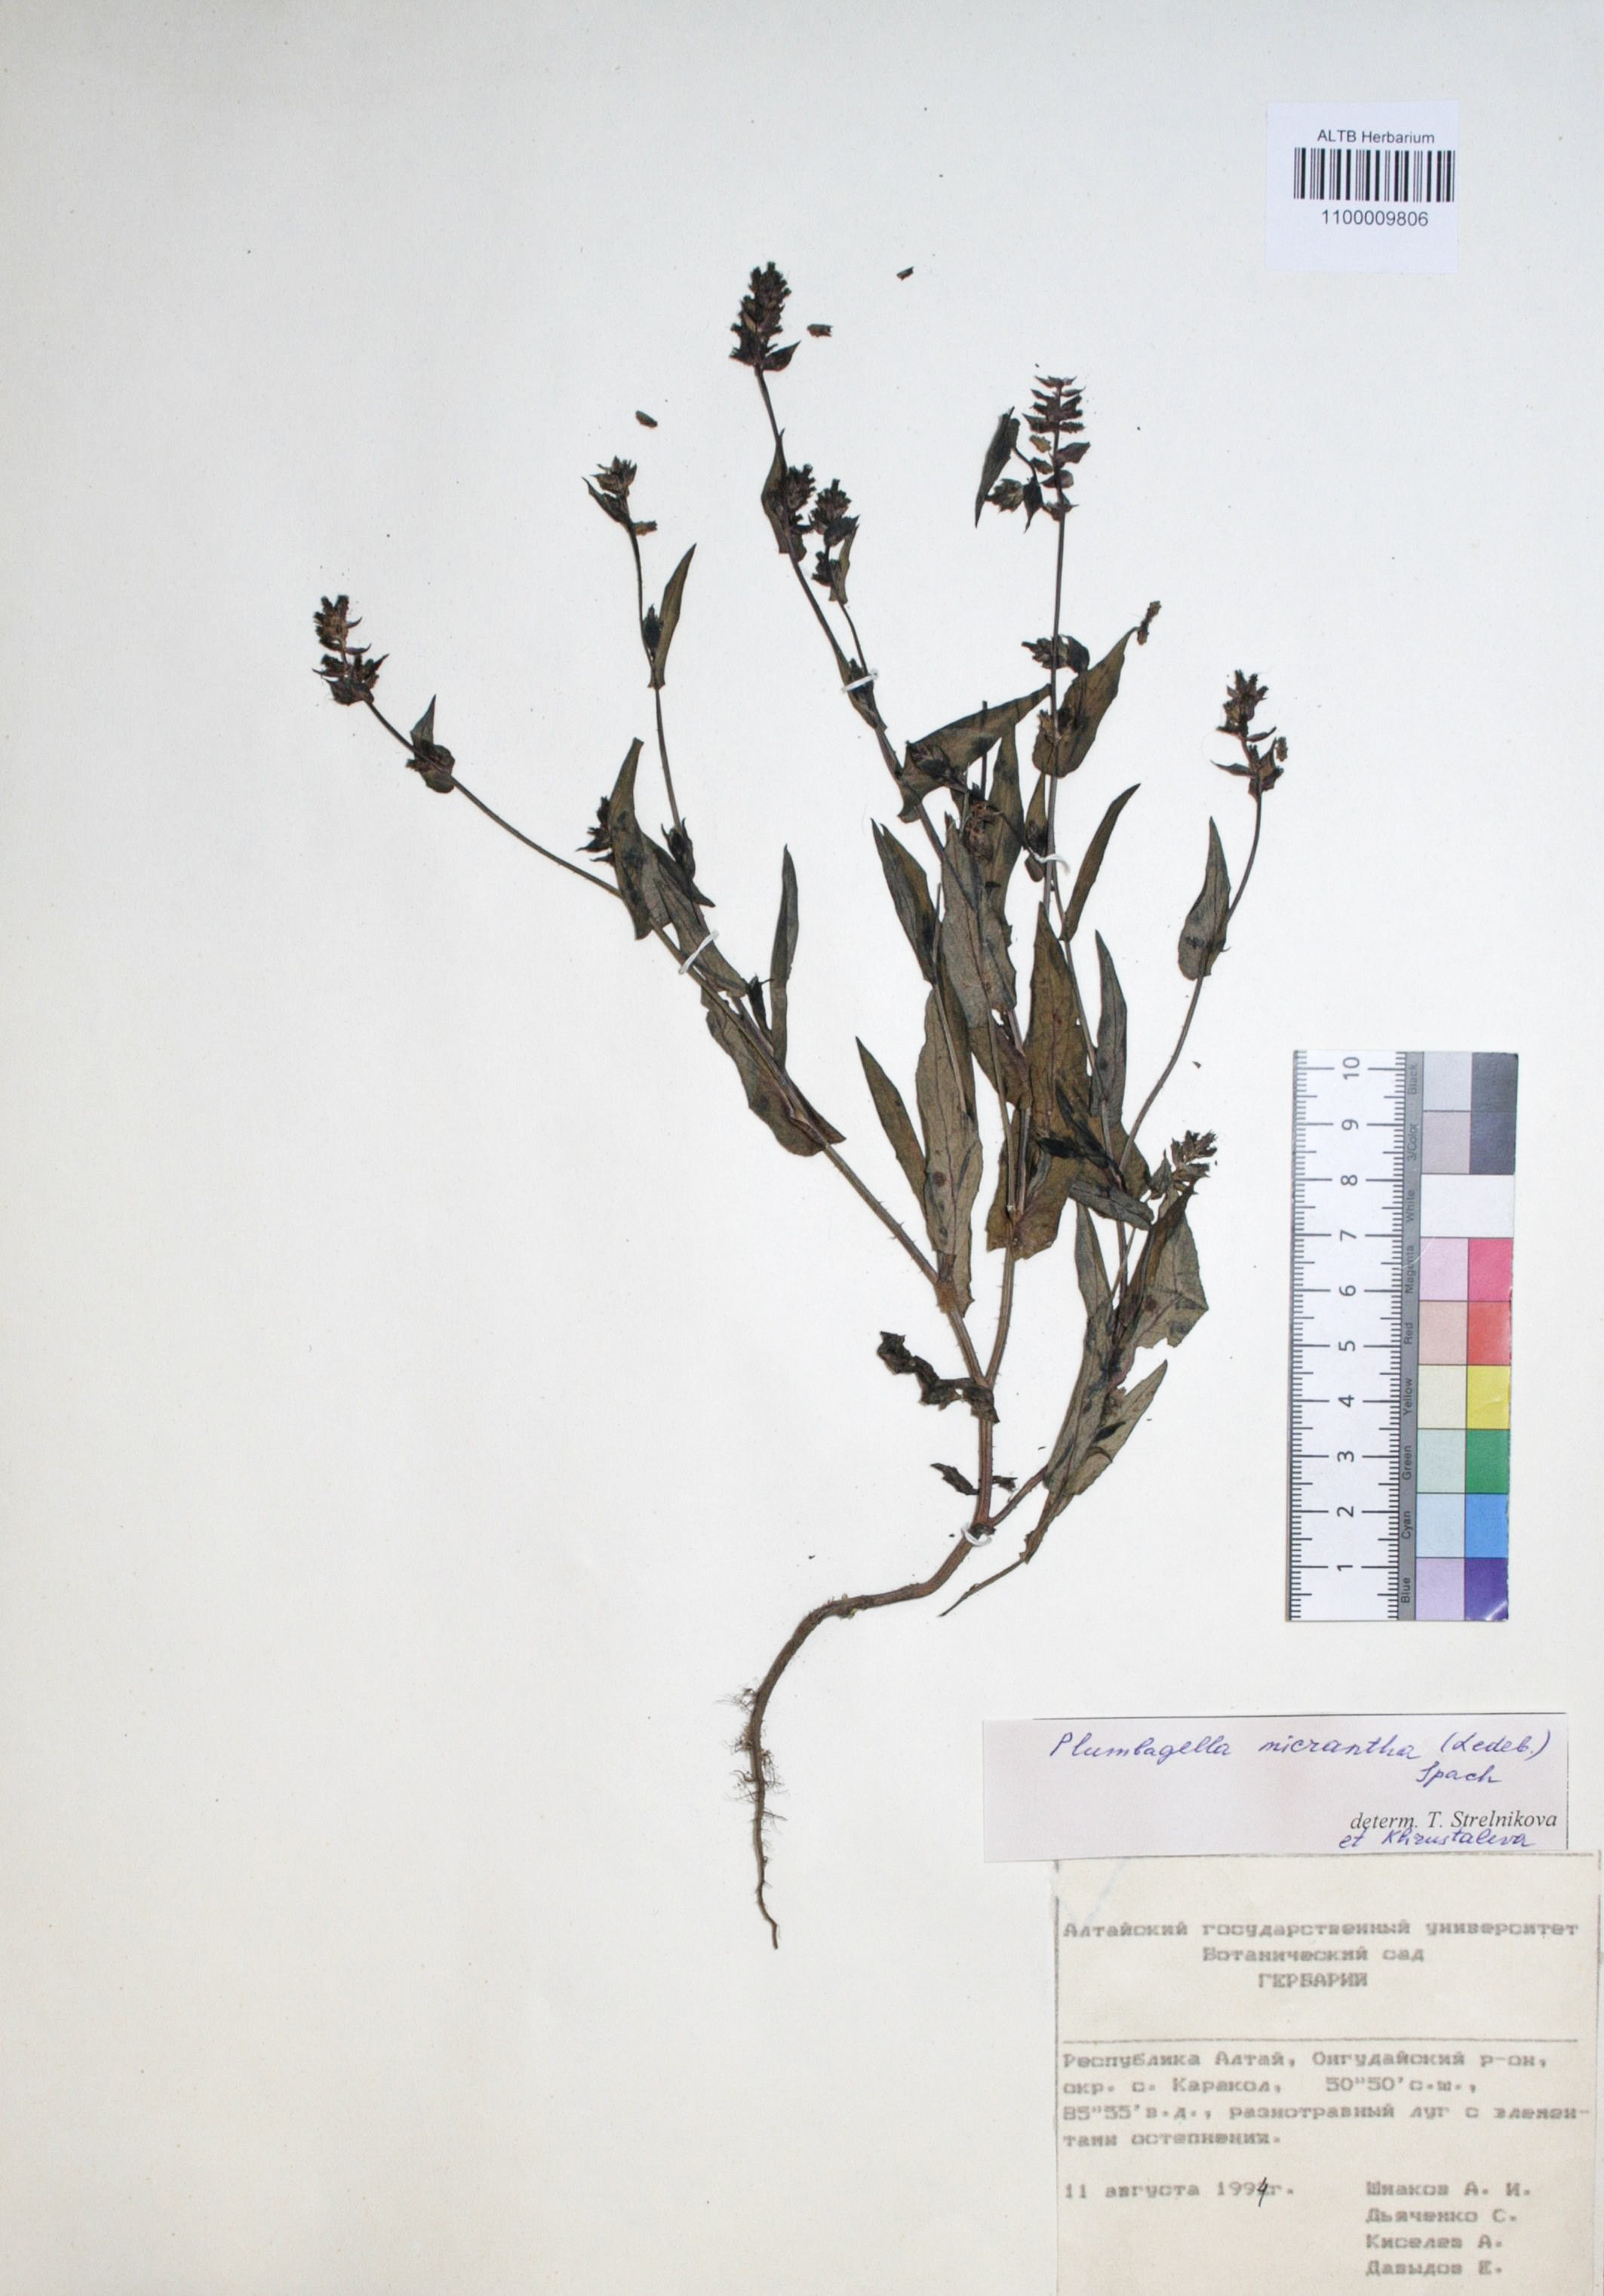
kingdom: Plantae
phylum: Tracheophyta
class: Magnoliopsida
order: Caryophyllales
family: Plumbaginaceae
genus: Plumbagella
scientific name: Plumbagella micrantha
